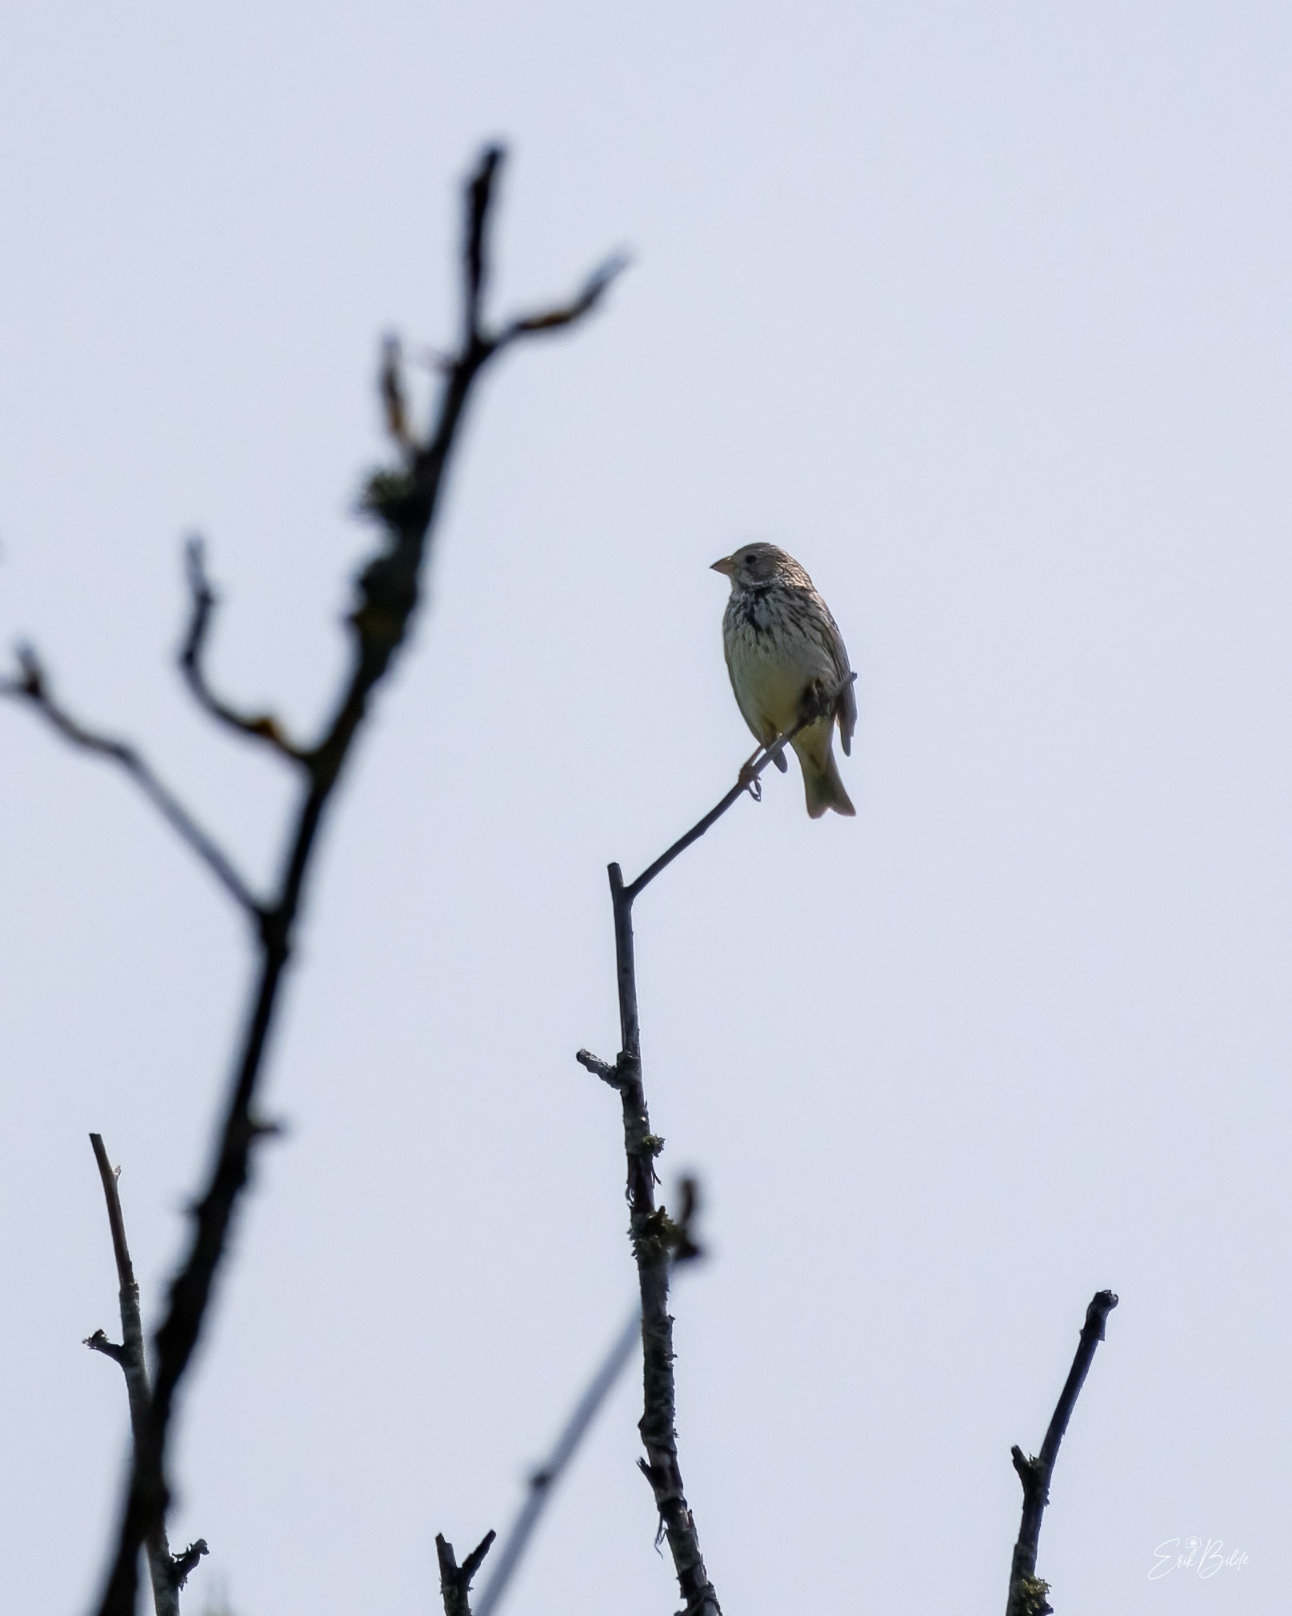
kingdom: Animalia
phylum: Chordata
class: Aves
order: Passeriformes
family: Emberizidae
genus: Emberiza
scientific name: Emberiza calandra
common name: Bomlærke
